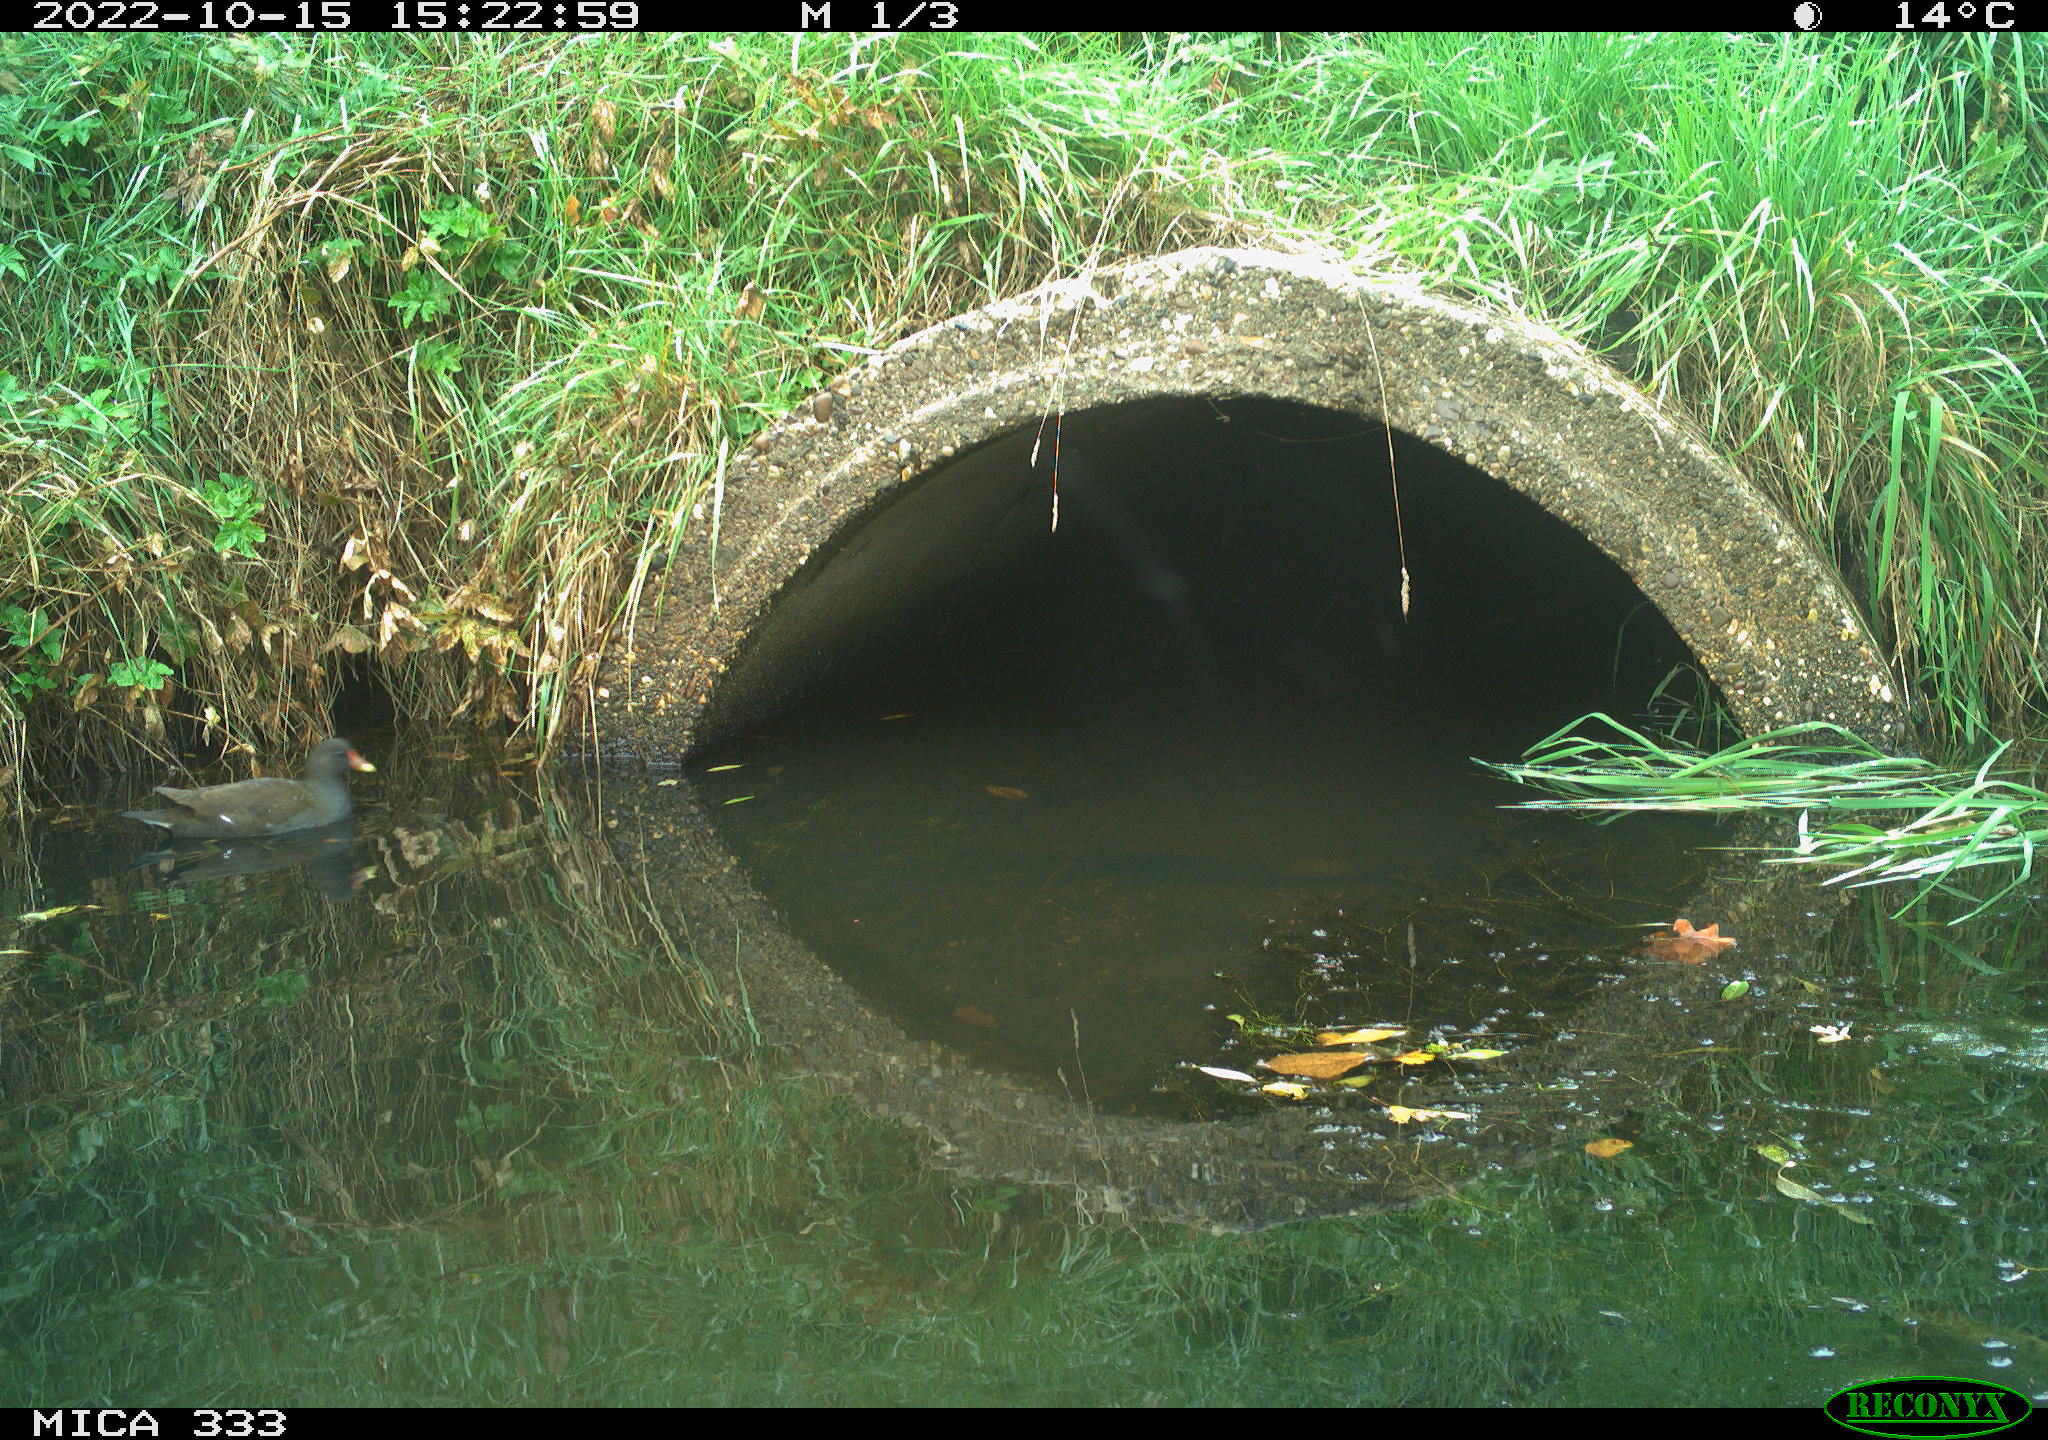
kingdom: Animalia
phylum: Chordata
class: Aves
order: Gruiformes
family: Rallidae
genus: Gallinula
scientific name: Gallinula chloropus
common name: Common moorhen
